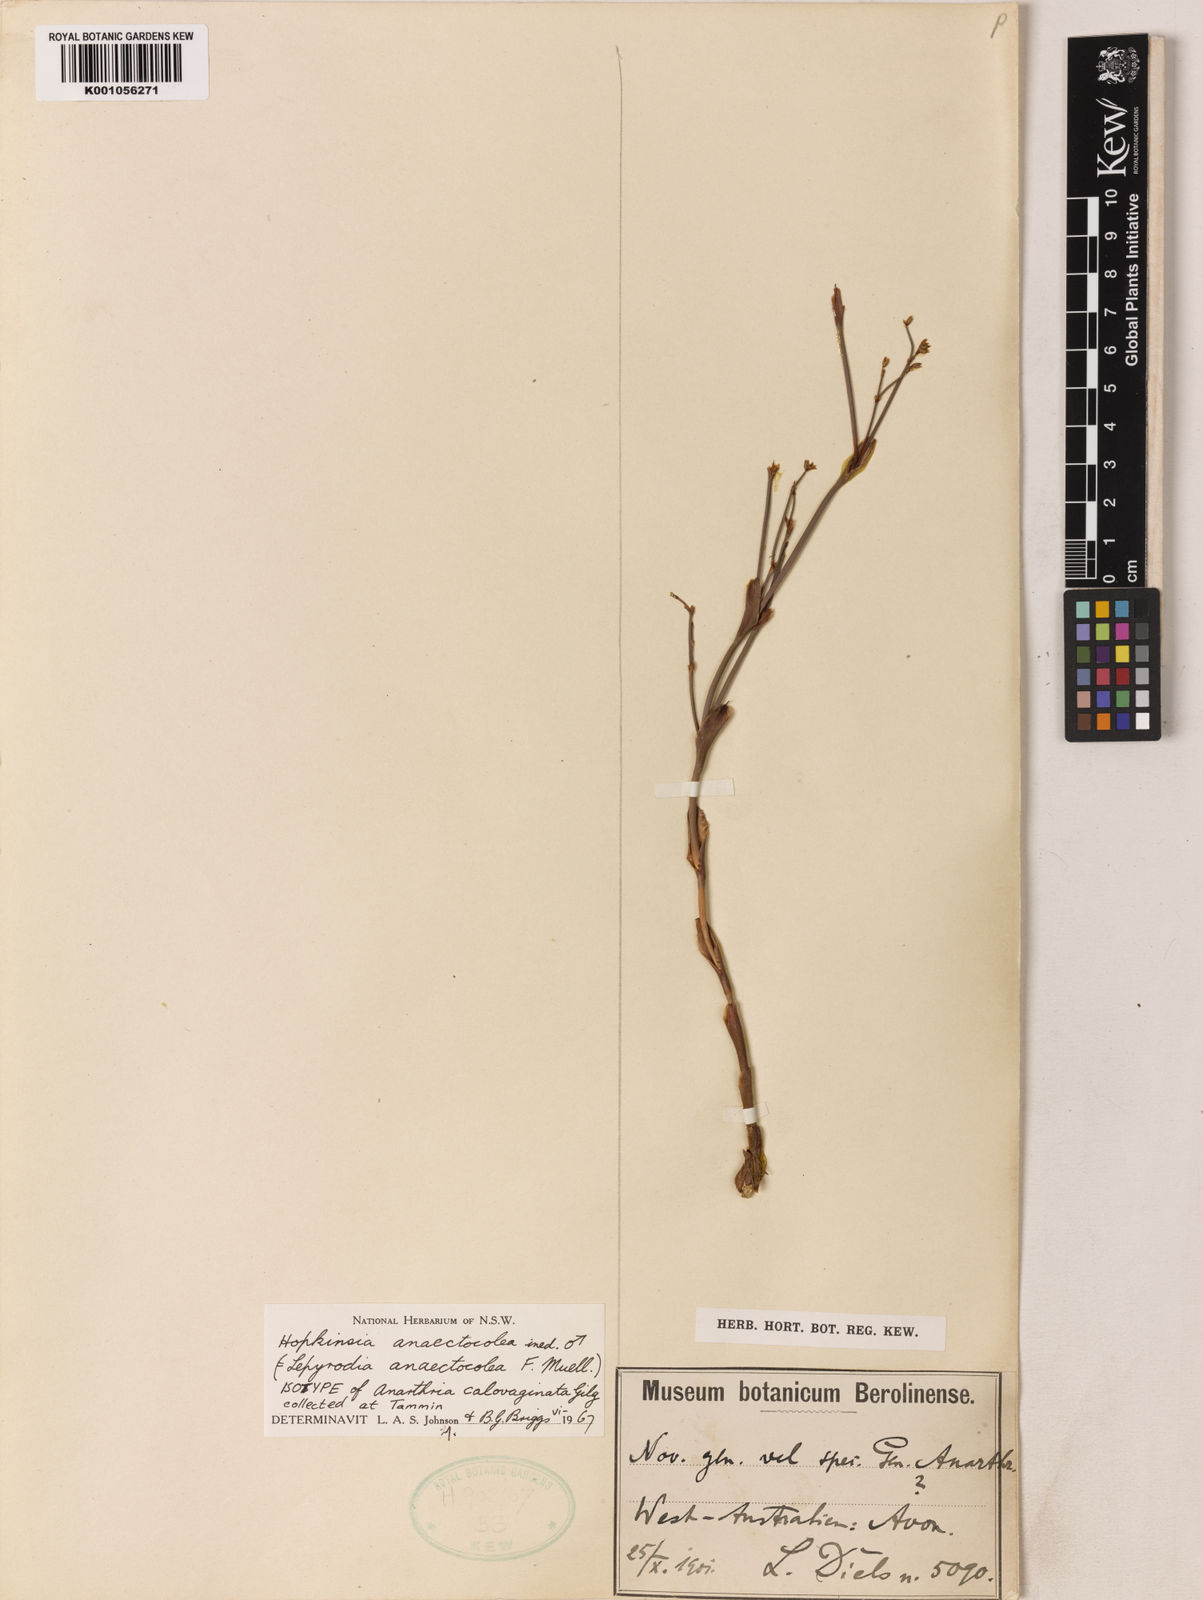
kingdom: Plantae
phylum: Tracheophyta
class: Liliopsida
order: Poales
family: Restionaceae
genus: Hopkinsia
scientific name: Hopkinsia anoectocolea
